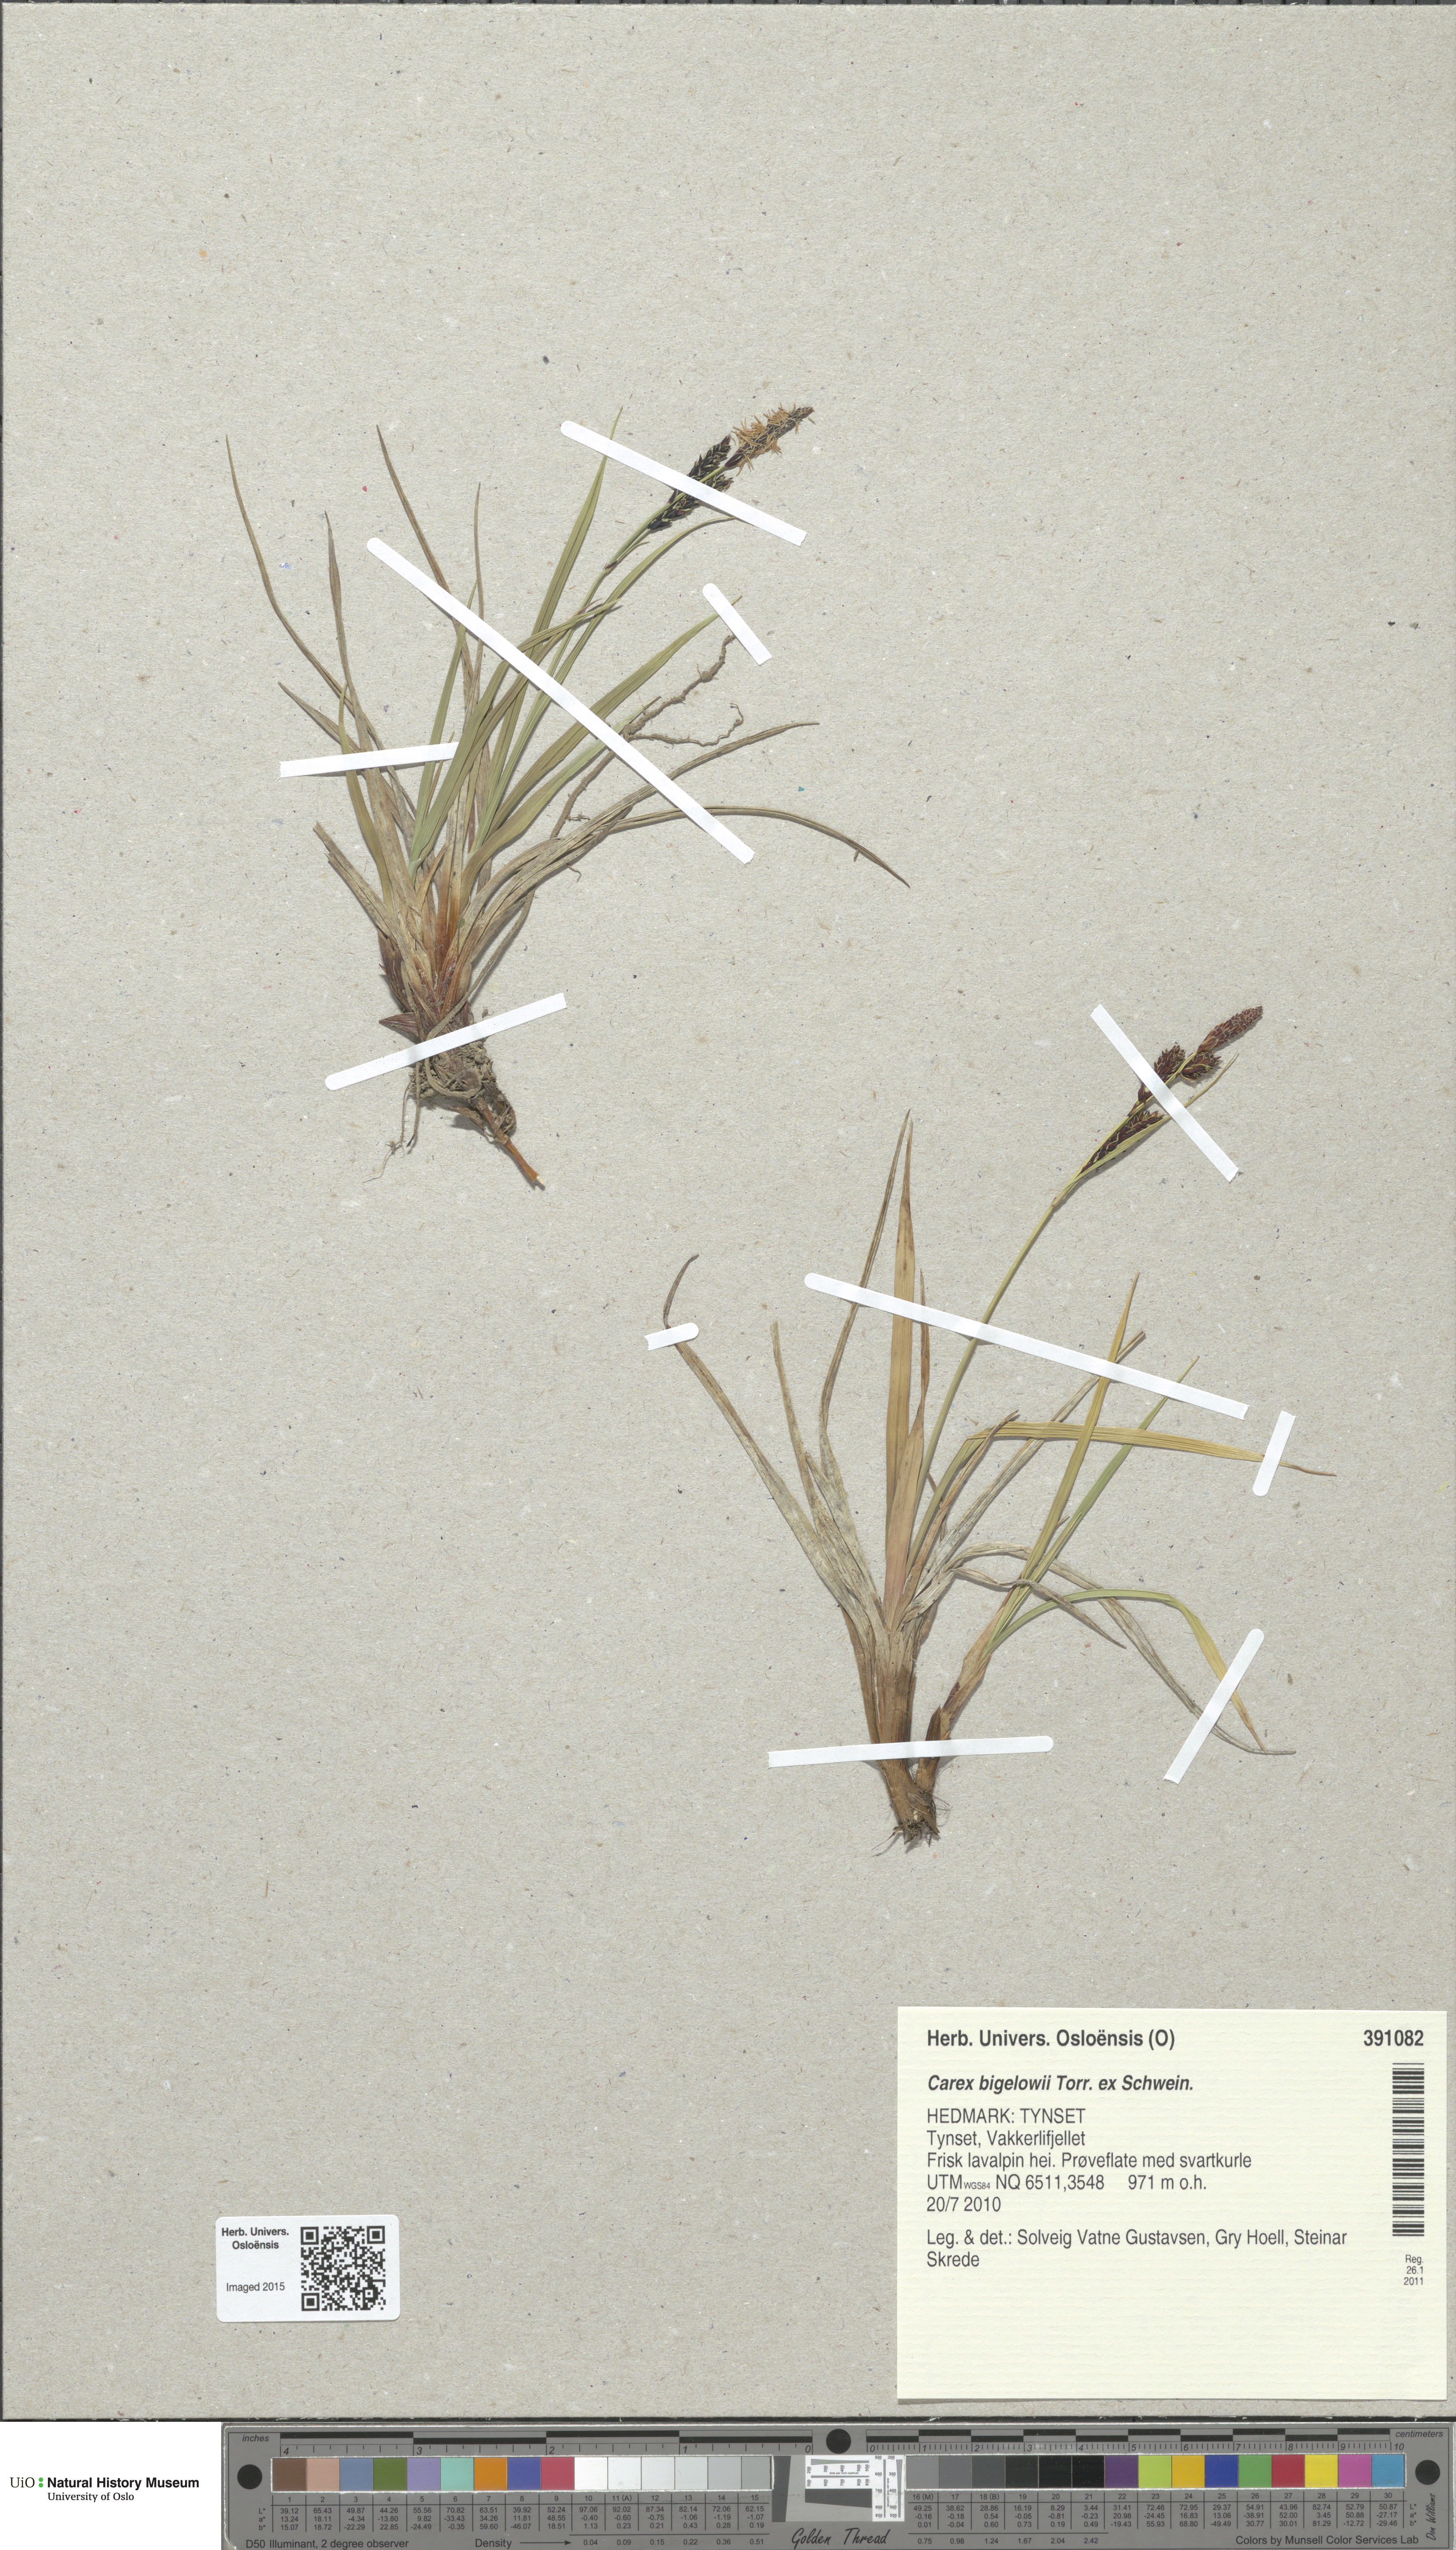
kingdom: Plantae
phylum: Tracheophyta
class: Liliopsida
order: Poales
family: Cyperaceae
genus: Carex
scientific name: Carex bigelowii
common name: Stiff sedge
